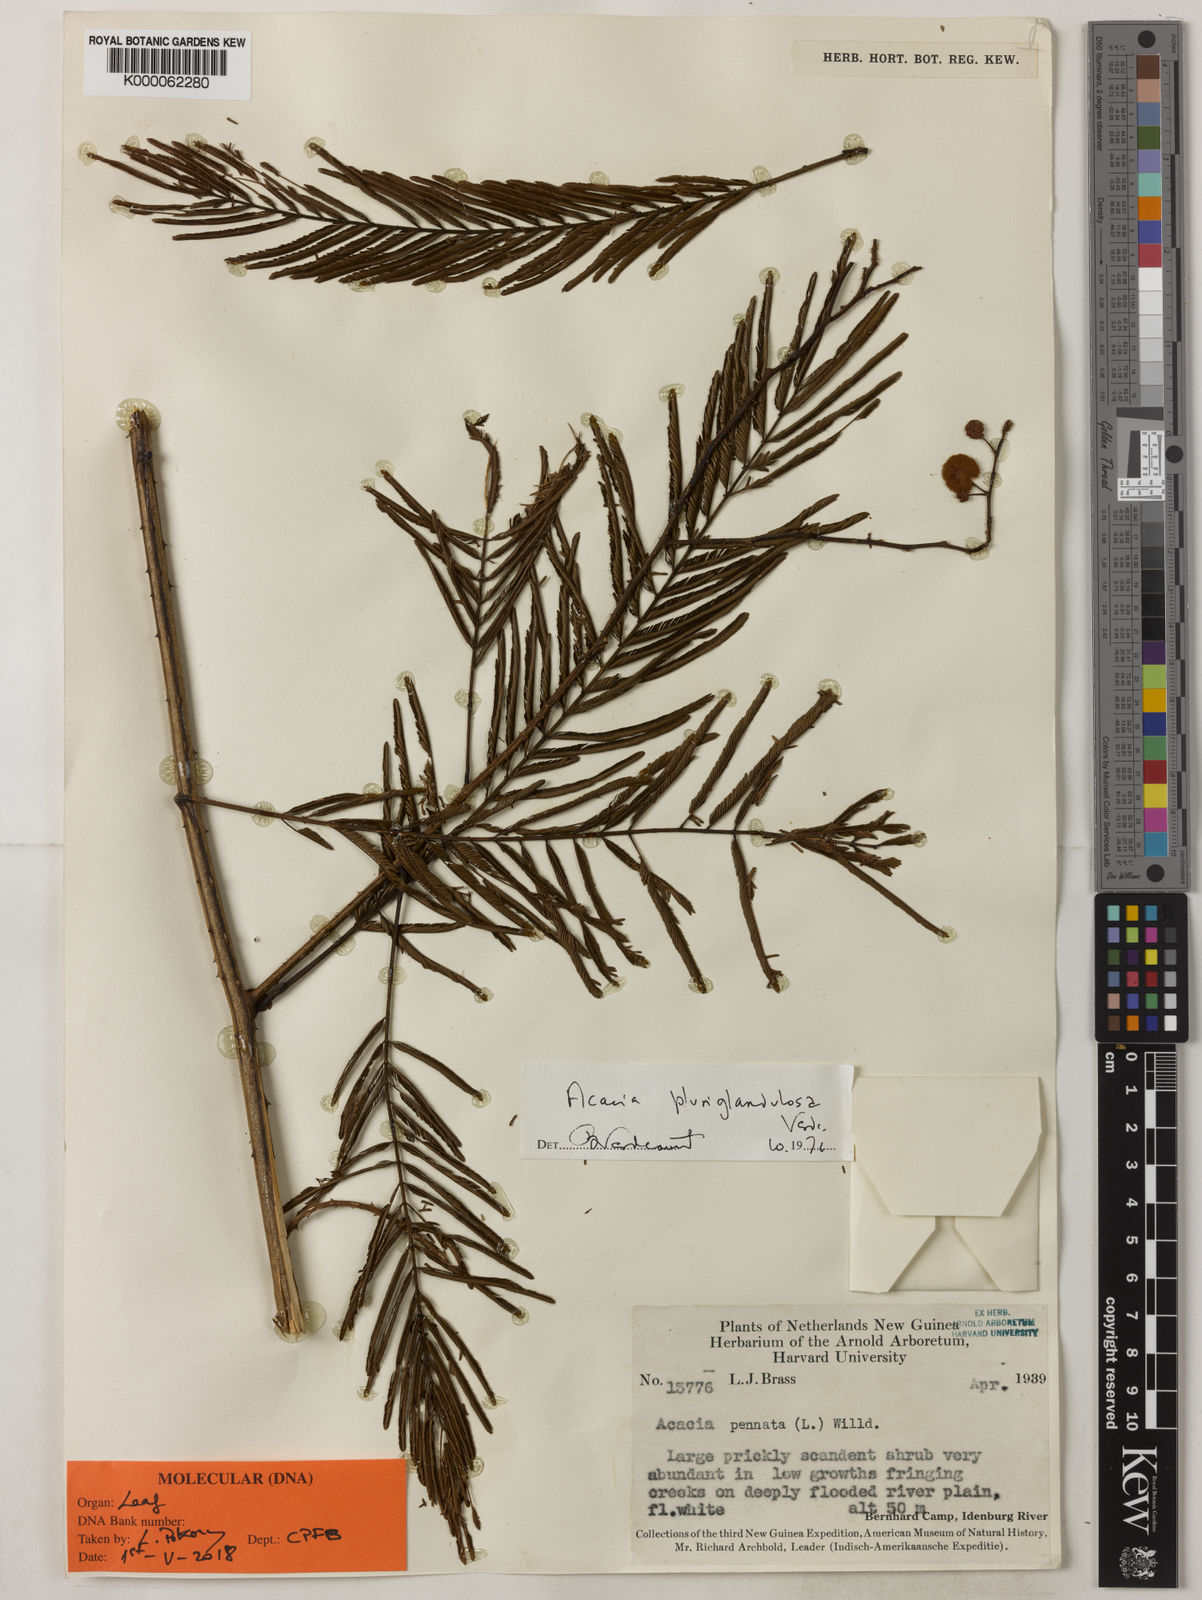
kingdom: Plantae
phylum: Tracheophyta
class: Magnoliopsida
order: Fabales
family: Fabaceae
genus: Senegalia
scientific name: Senegalia pluriglandulosa
